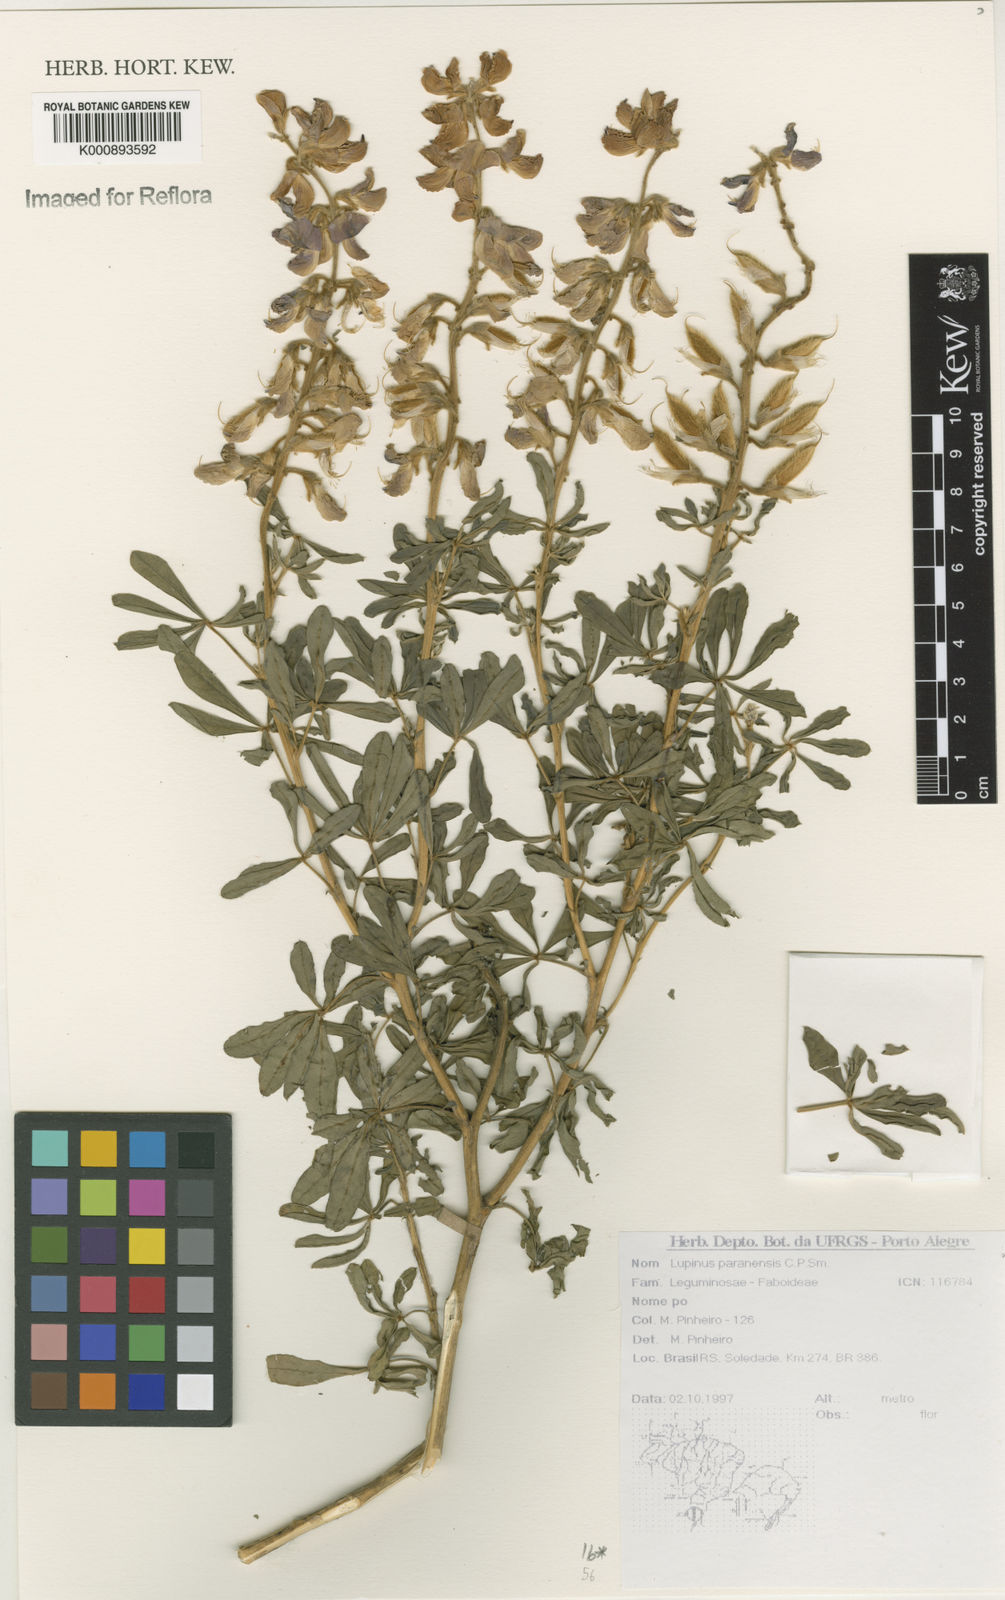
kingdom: Plantae
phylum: Tracheophyta
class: Magnoliopsida
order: Fabales
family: Fabaceae
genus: Lupinus
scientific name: Lupinus paranensis
